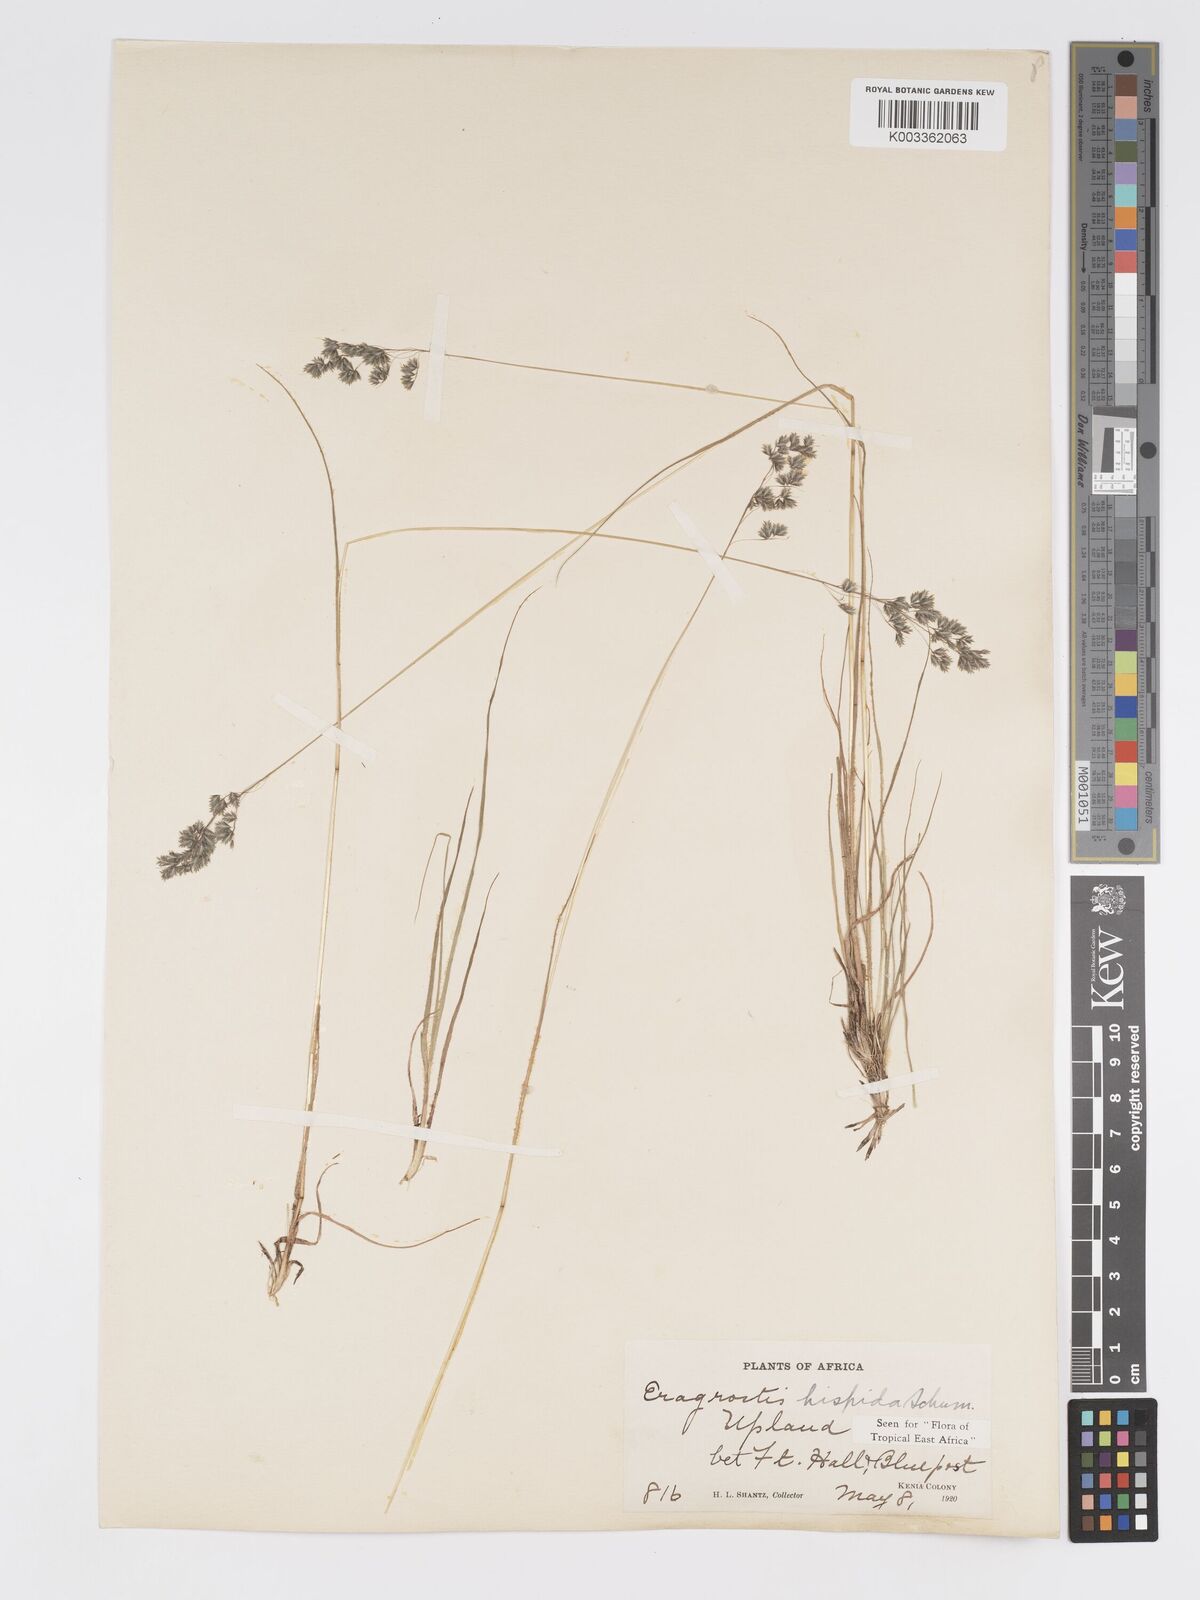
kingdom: Plantae
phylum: Tracheophyta
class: Liliopsida
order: Poales
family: Poaceae
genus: Eragrostis
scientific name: Eragrostis hispida
